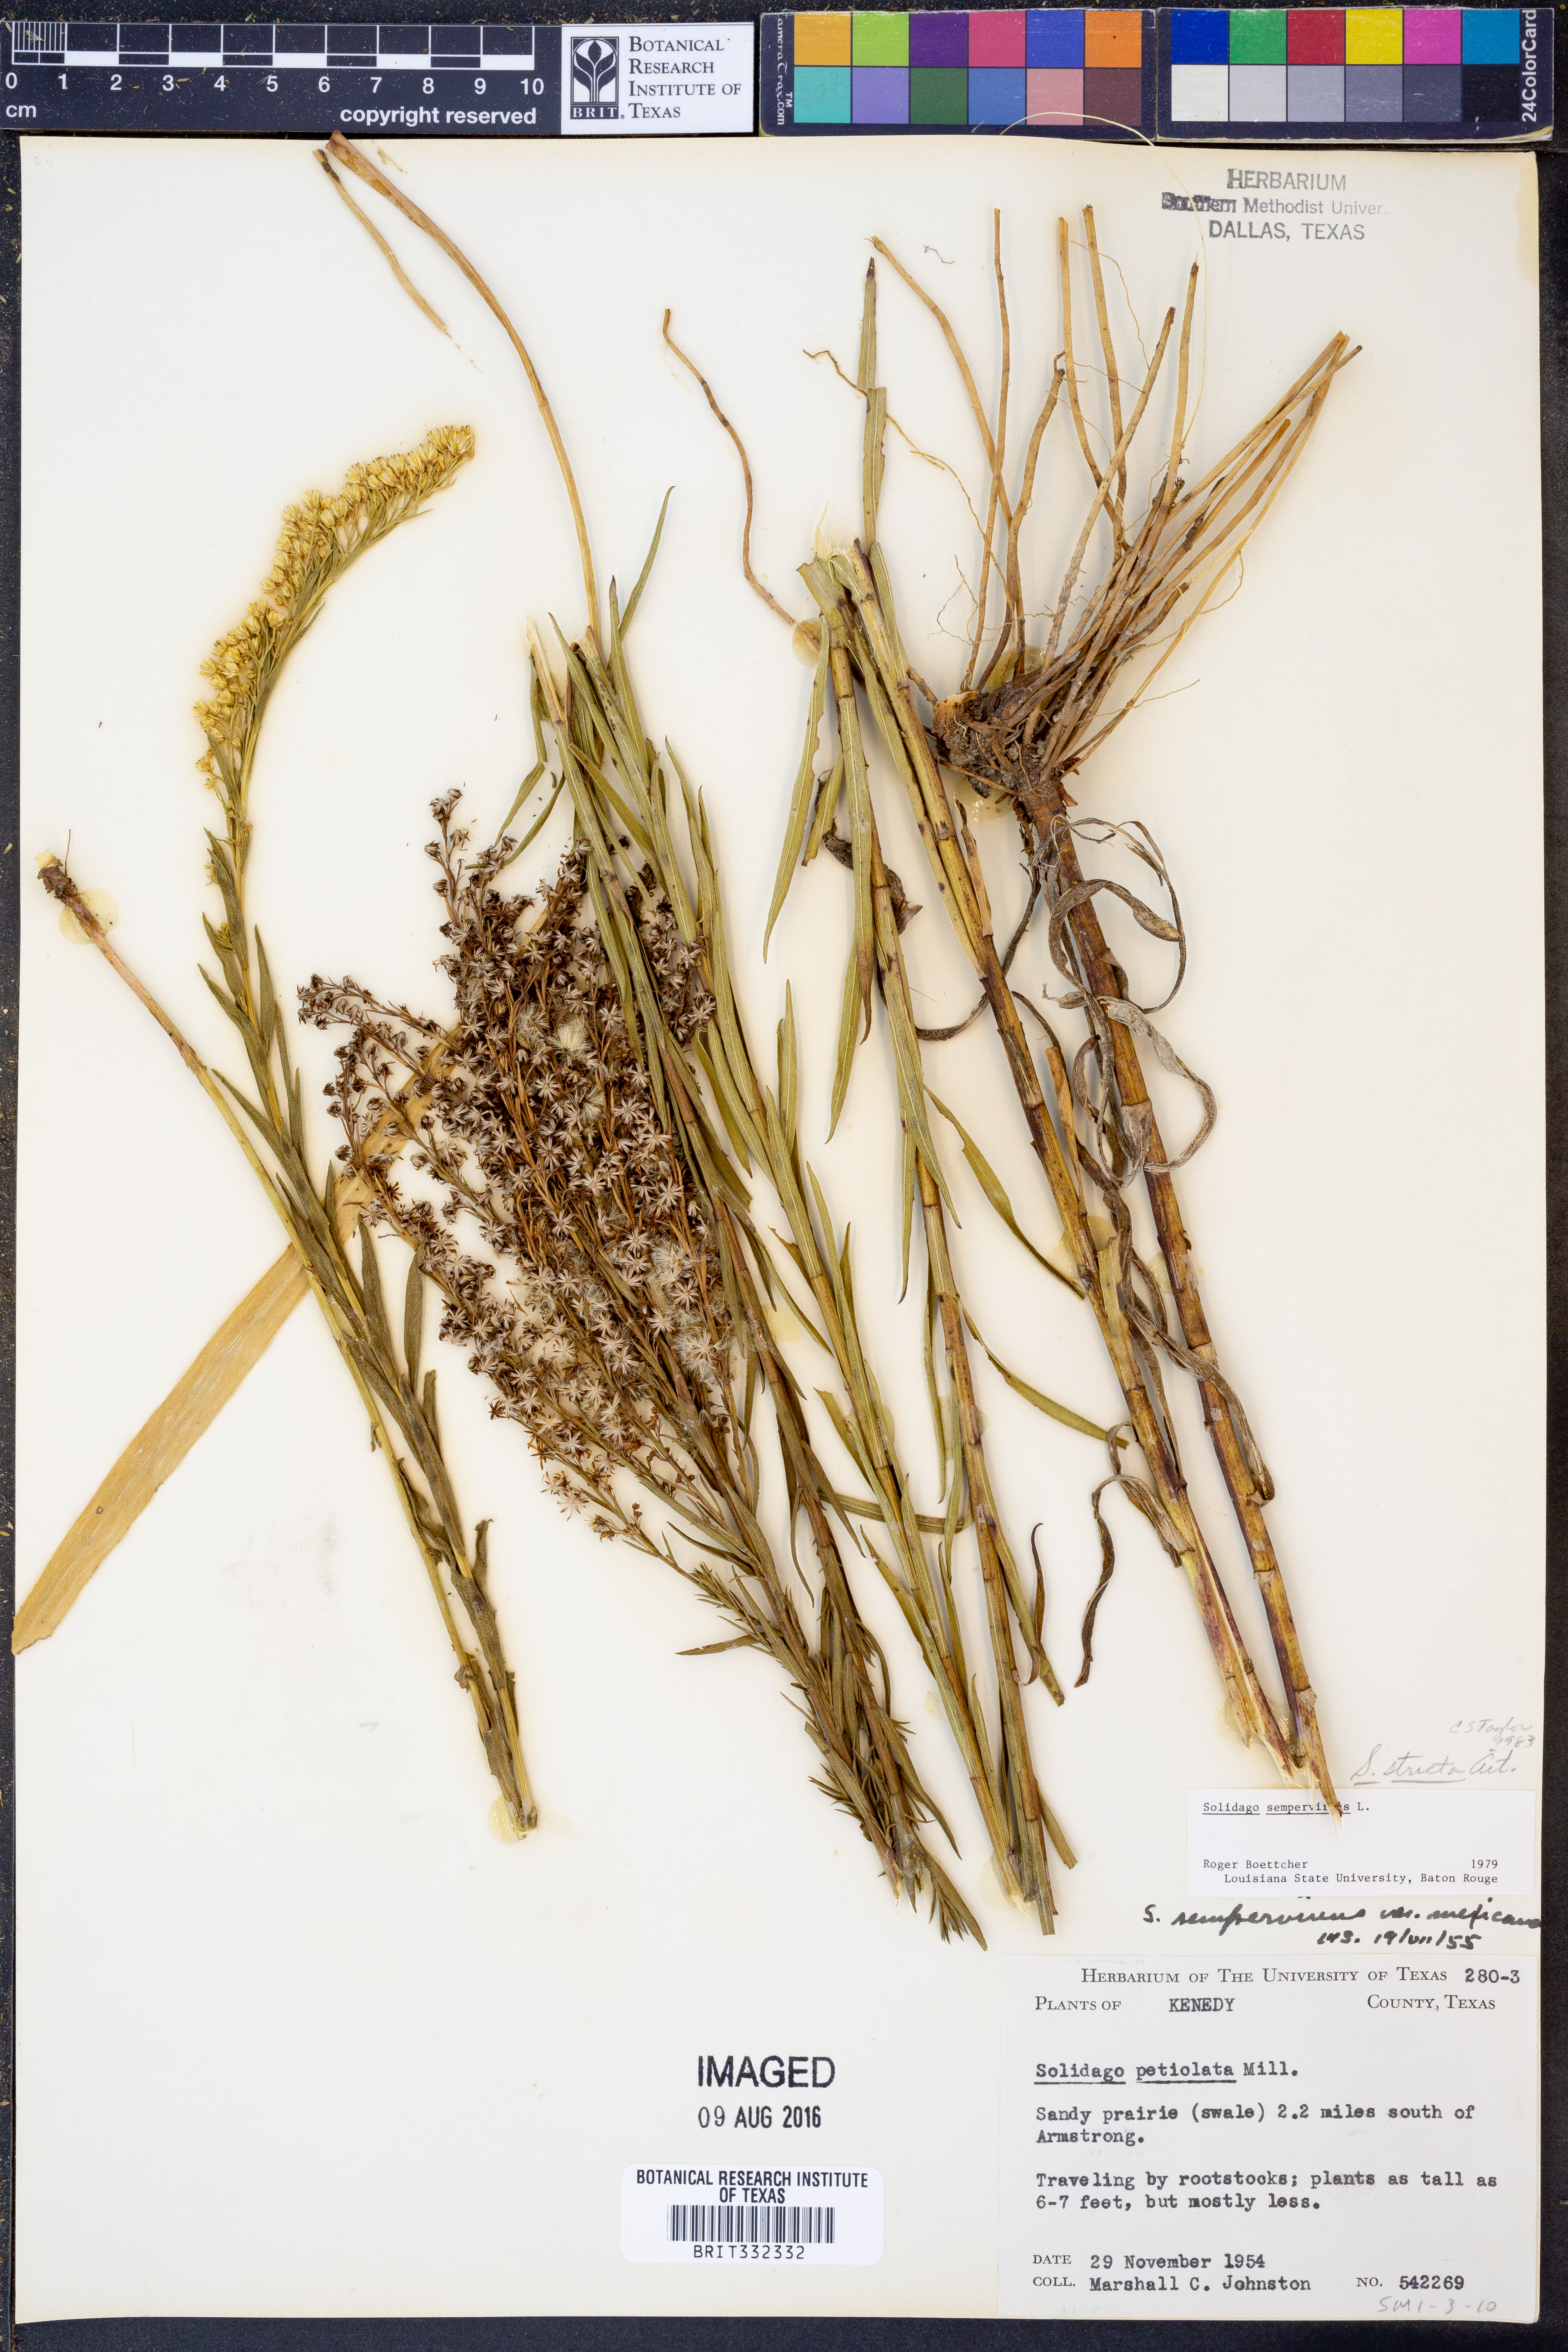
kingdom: Plantae
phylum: Tracheophyta
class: Magnoliopsida
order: Asterales
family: Asteraceae
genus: Solidago
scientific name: Solidago stricta
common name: Pine barren bog goldenrod
